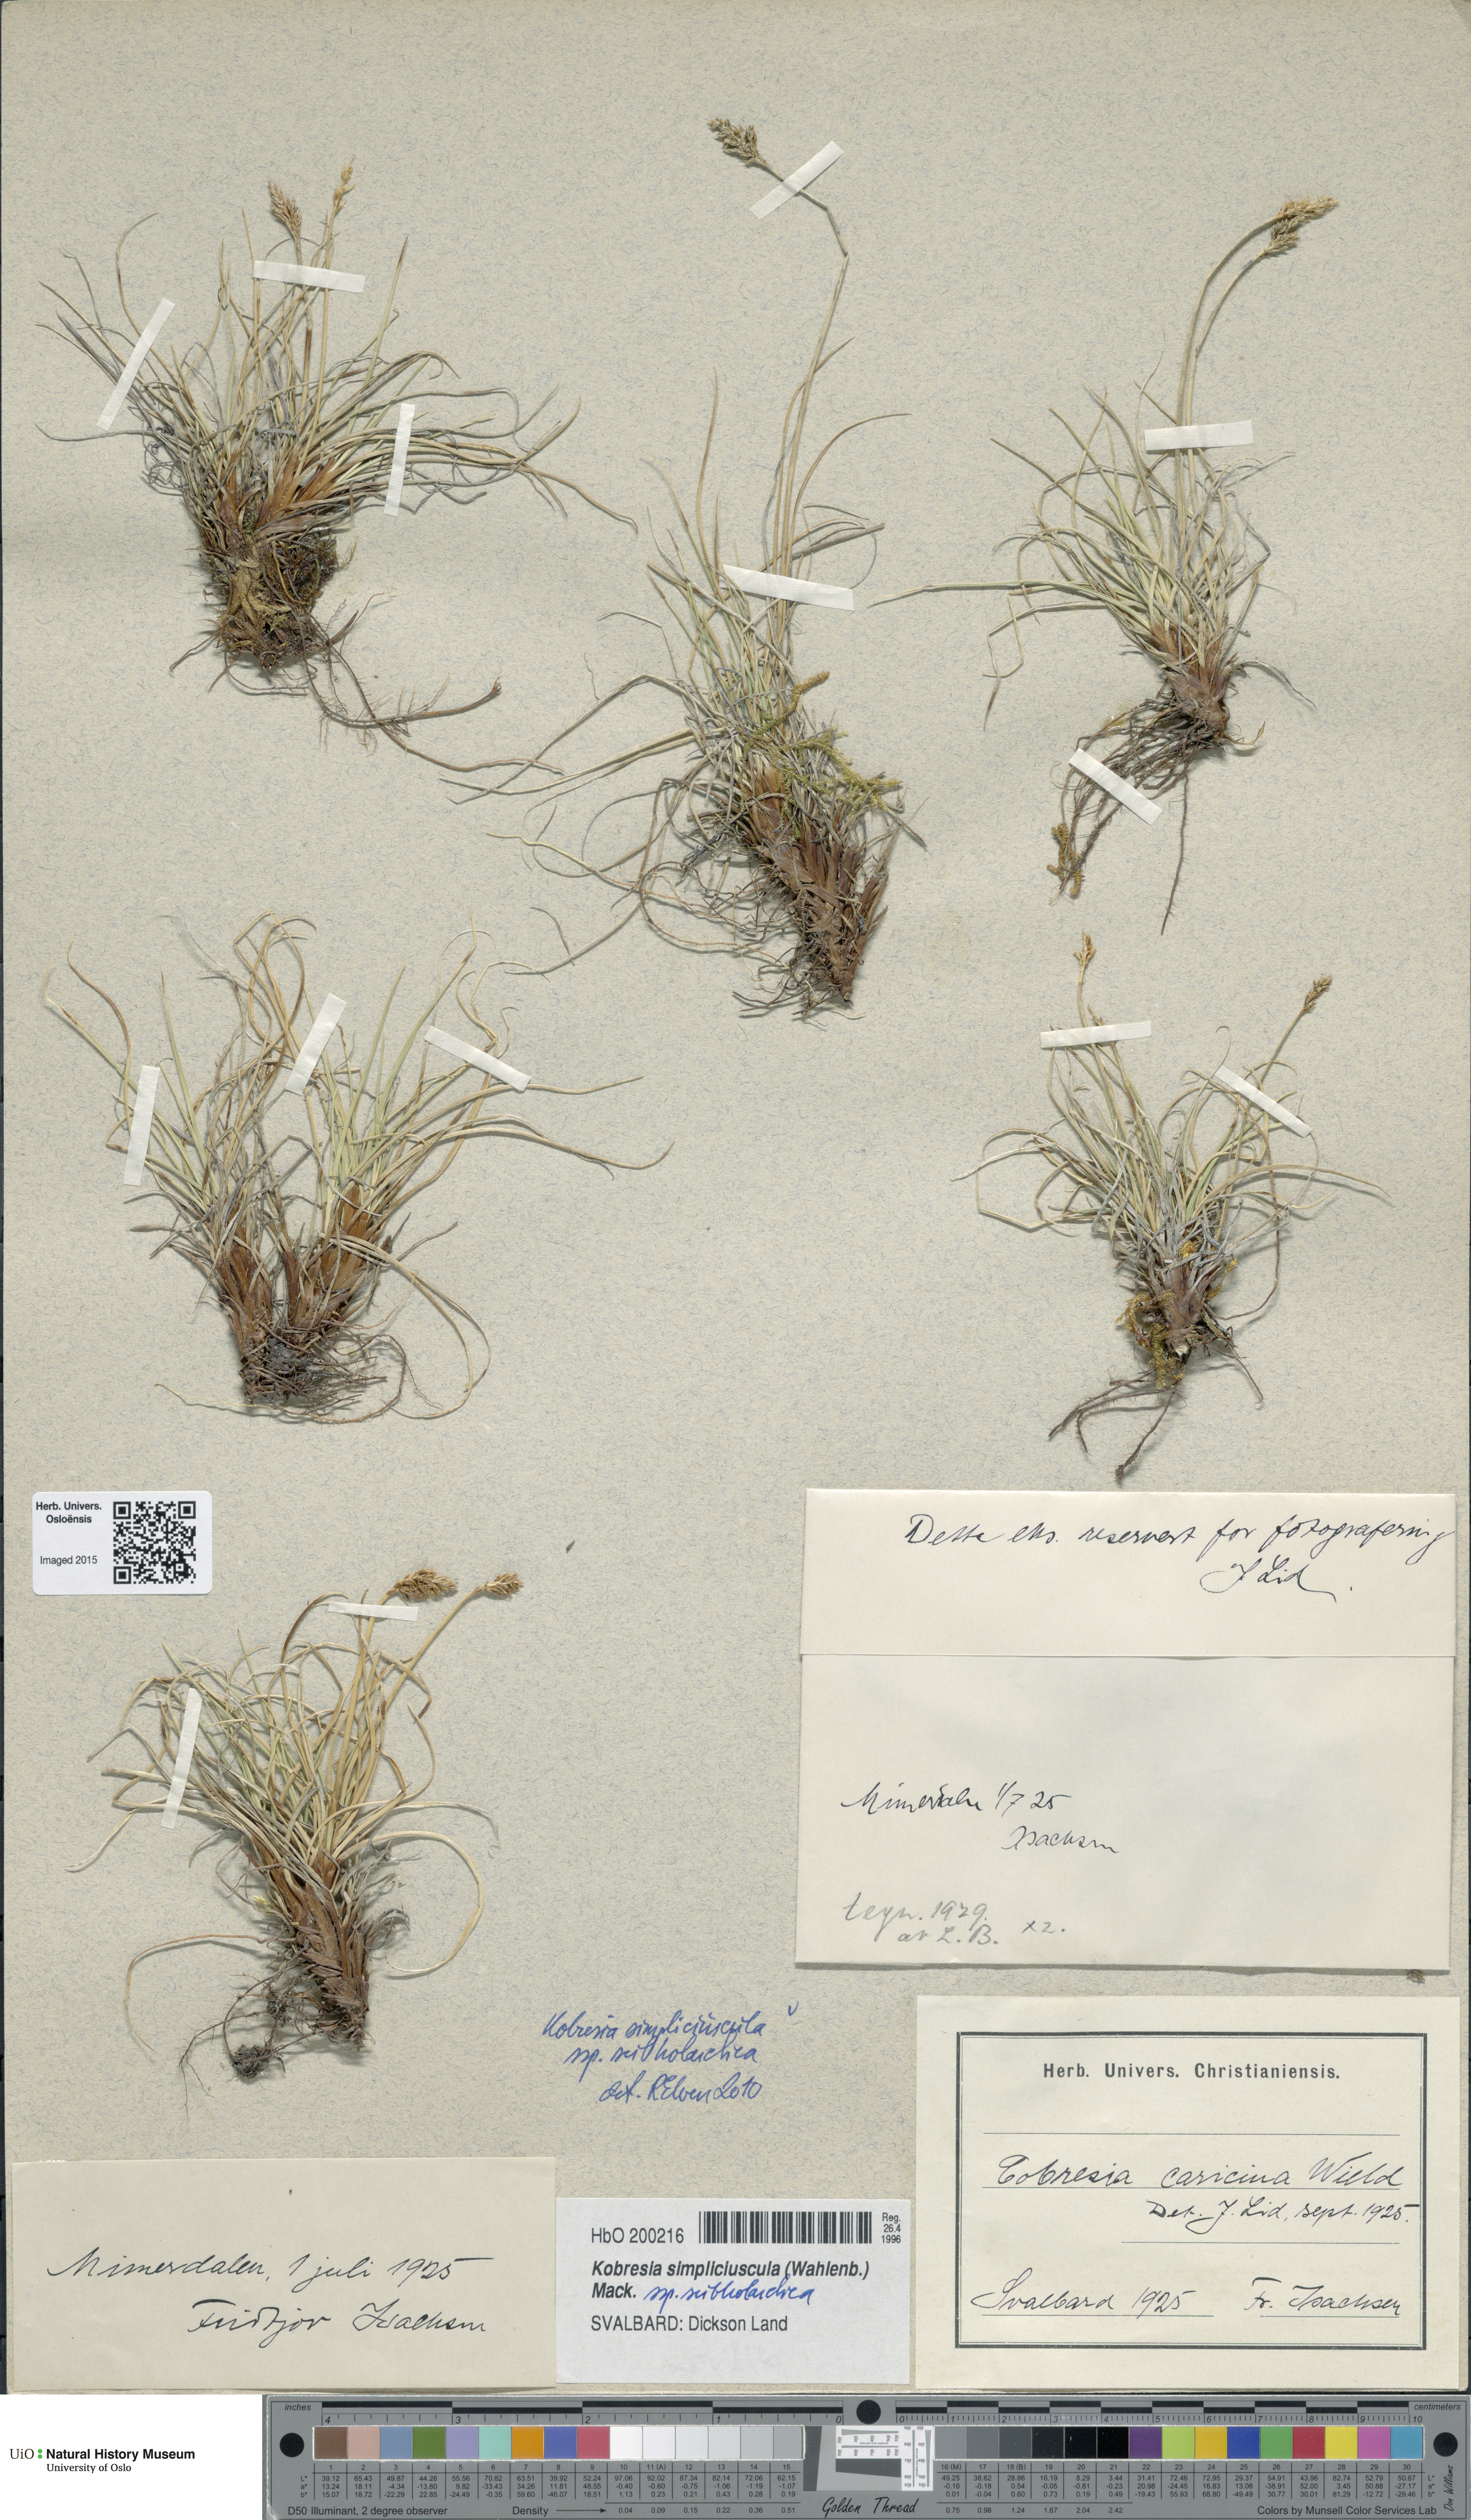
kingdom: Plantae
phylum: Tracheophyta
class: Liliopsida
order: Poales
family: Cyperaceae
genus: Carex
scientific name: Carex simpliciuscula
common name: Simple bog sedge
